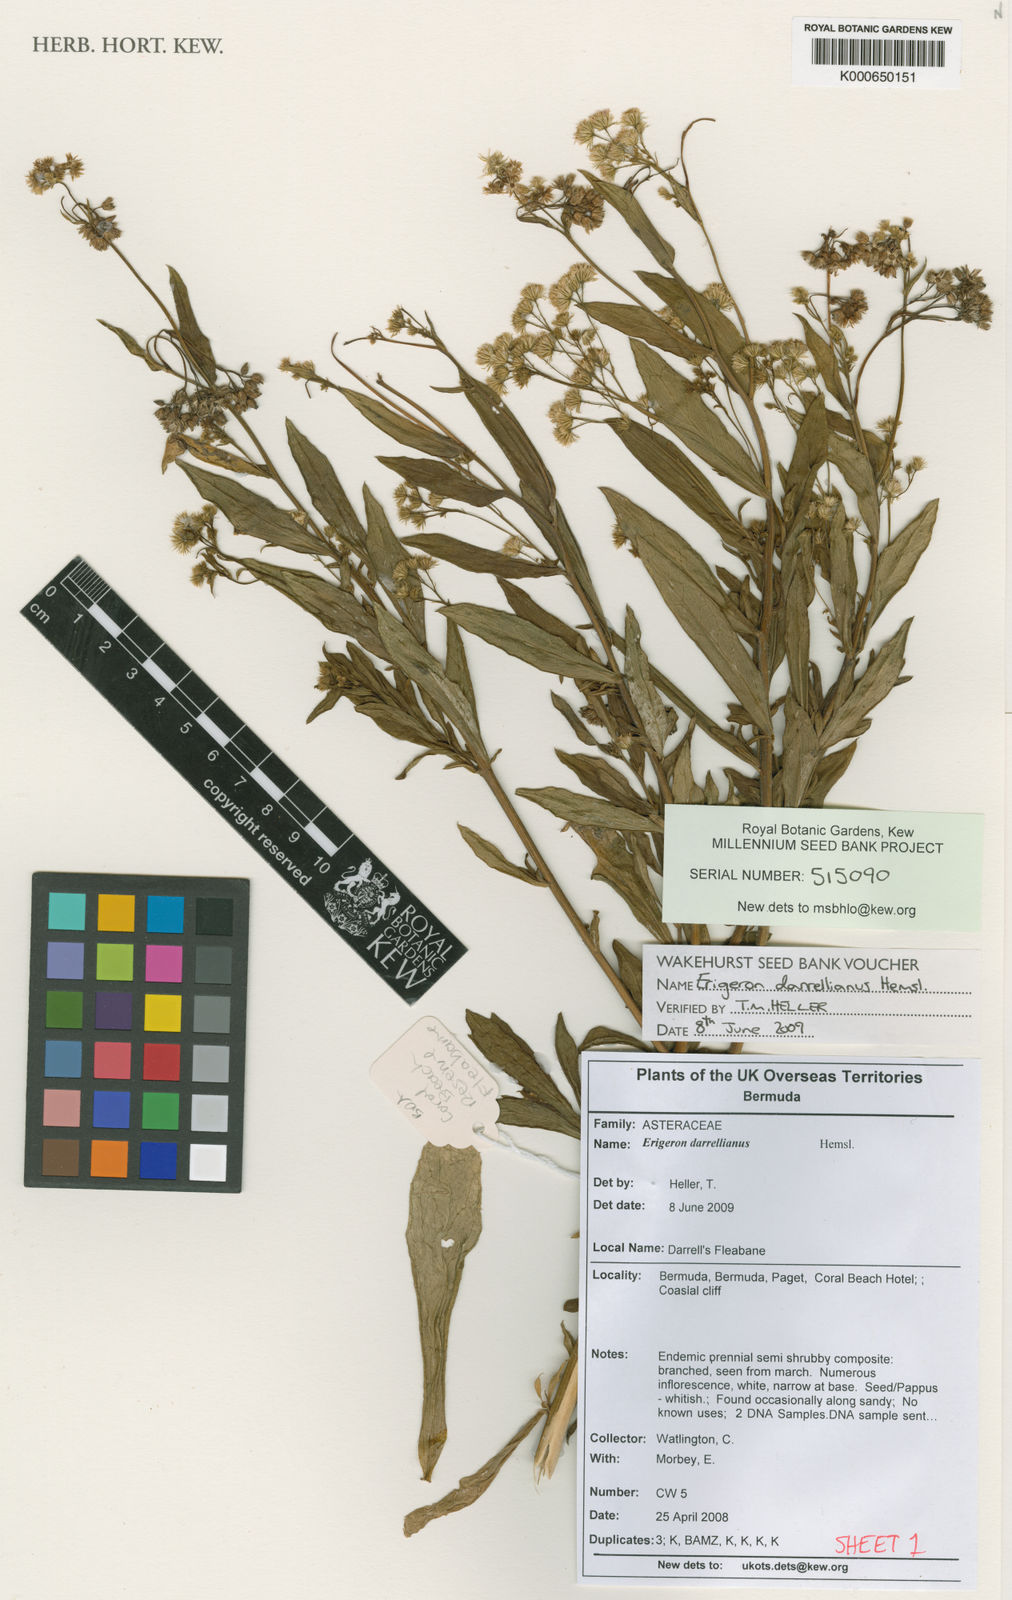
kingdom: Plantae
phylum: Tracheophyta
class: Magnoliopsida
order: Asterales
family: Asteraceae
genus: Erigeron
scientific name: Erigeron darrellianus
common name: Darrell's fleabane
